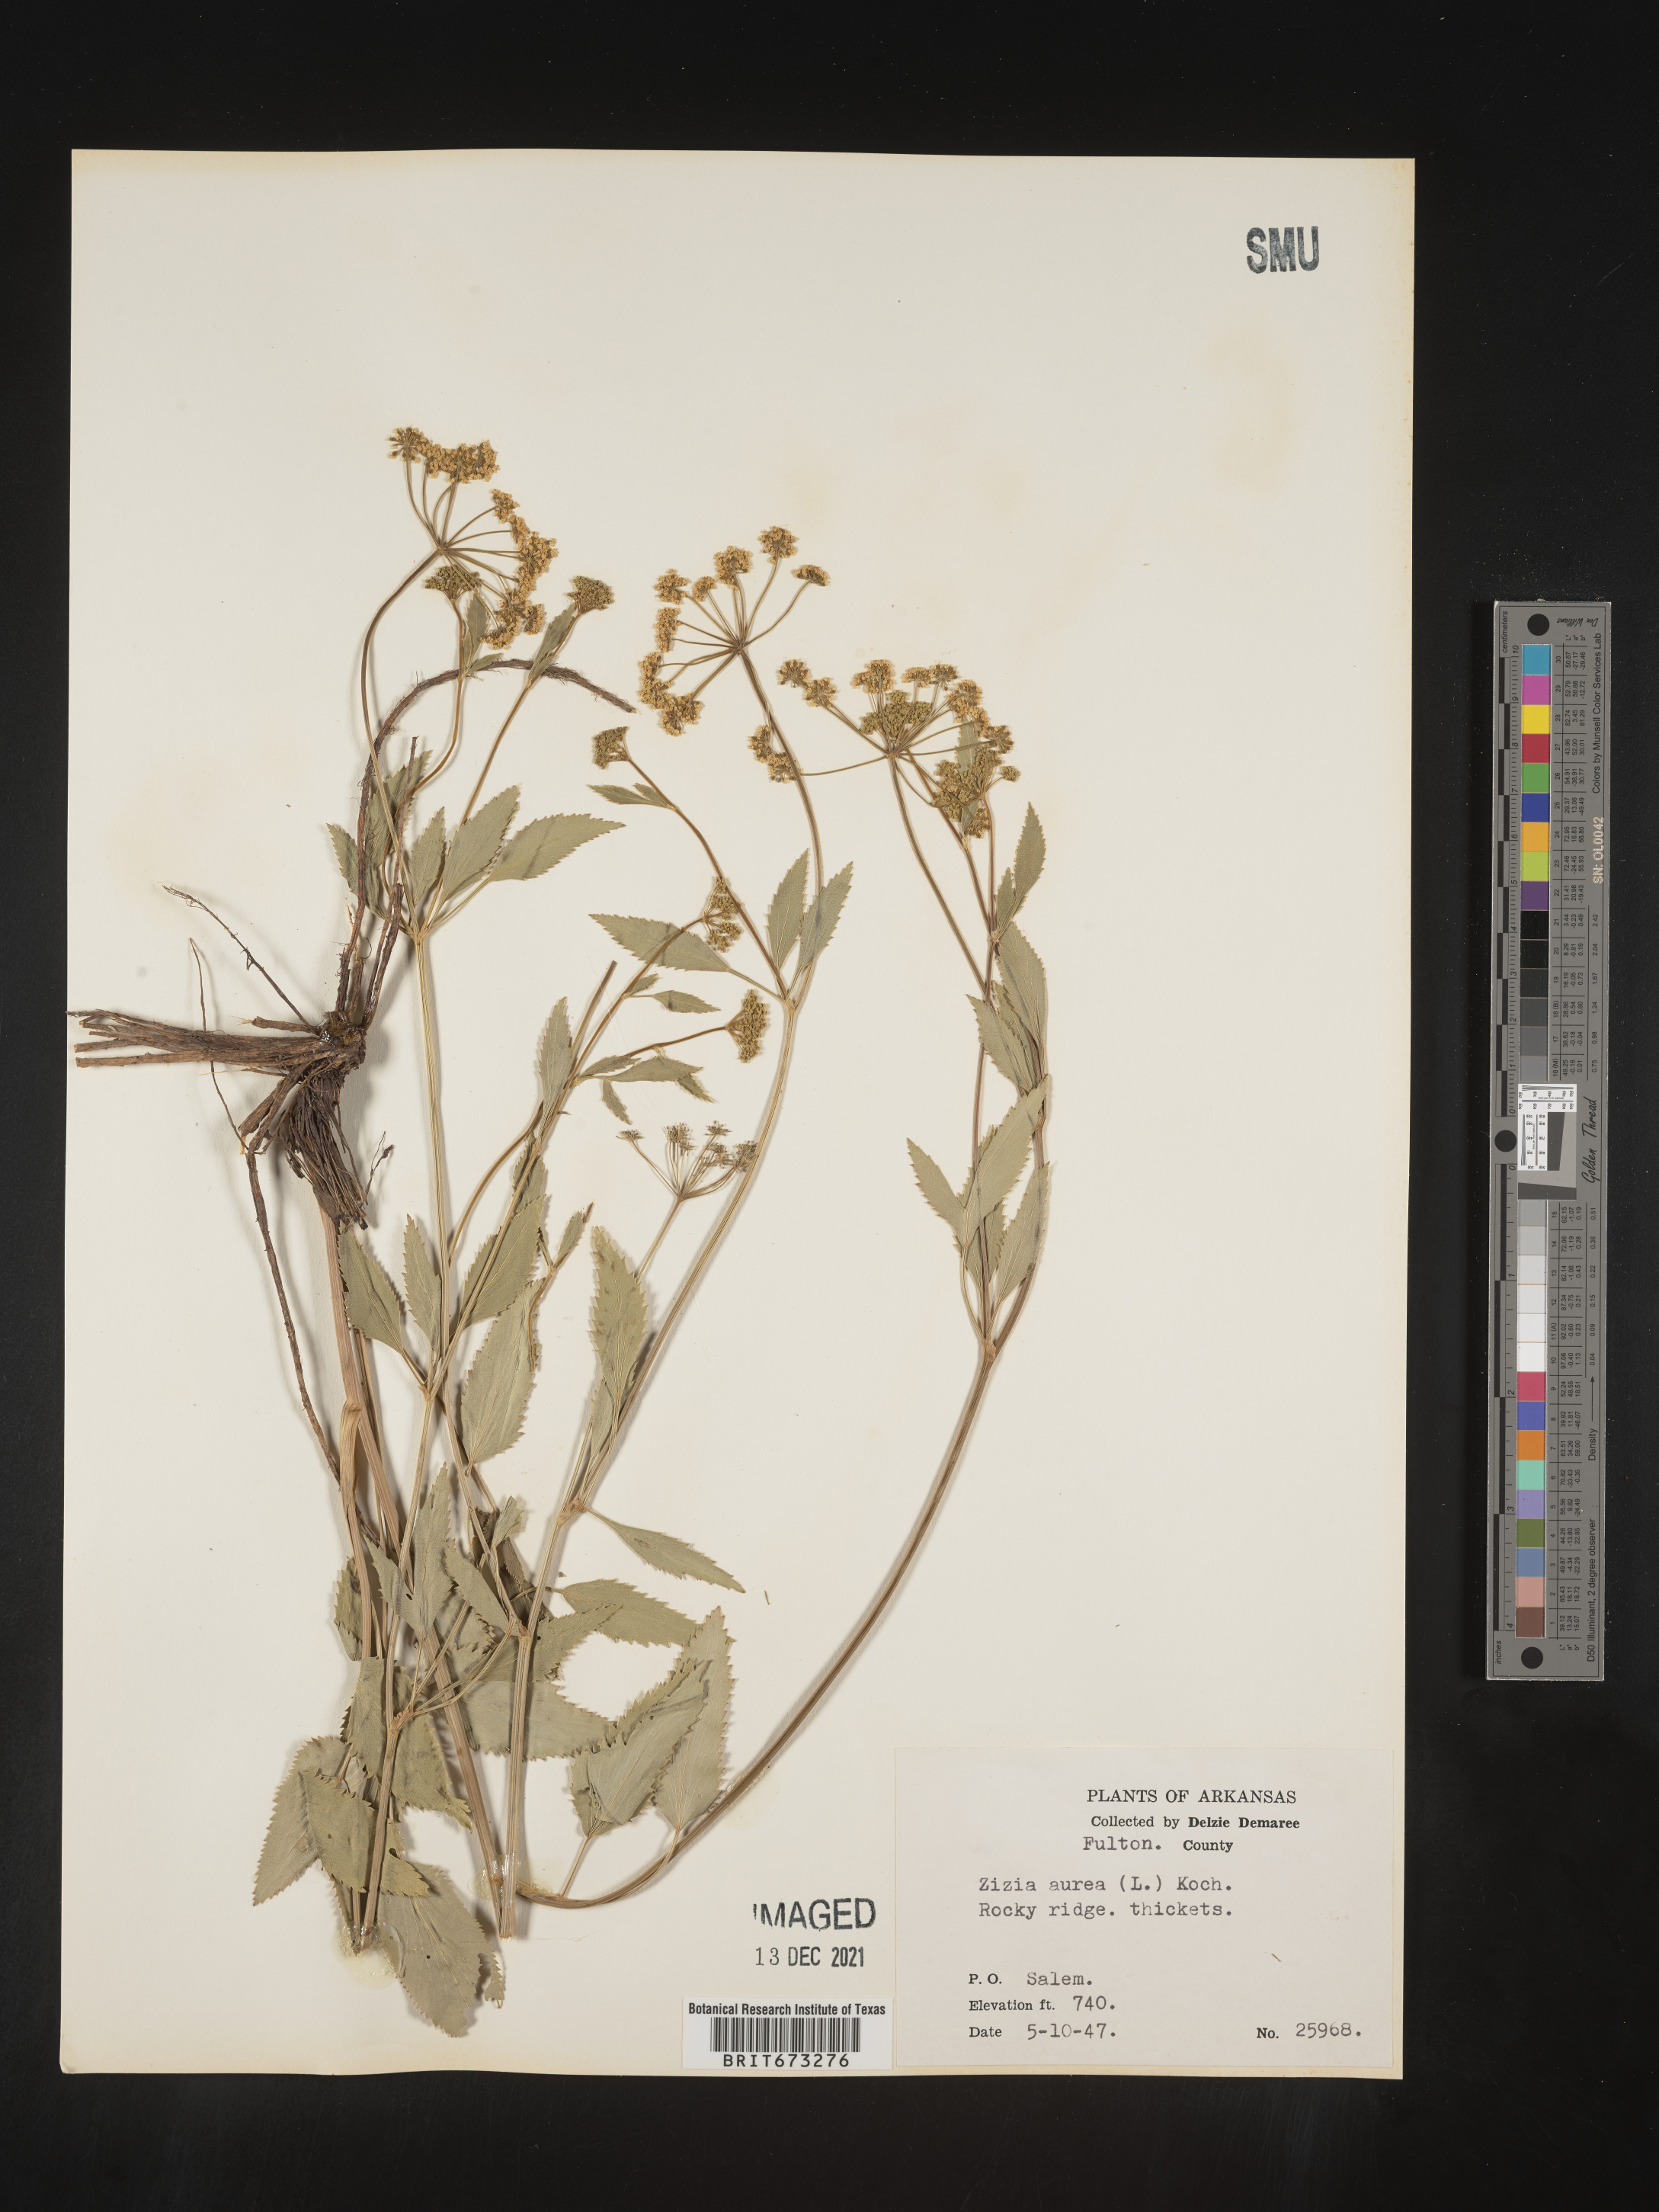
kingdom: Plantae
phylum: Tracheophyta
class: Magnoliopsida
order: Apiales
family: Apiaceae
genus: Zizia
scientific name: Zizia aurea
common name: Golden alexanders
